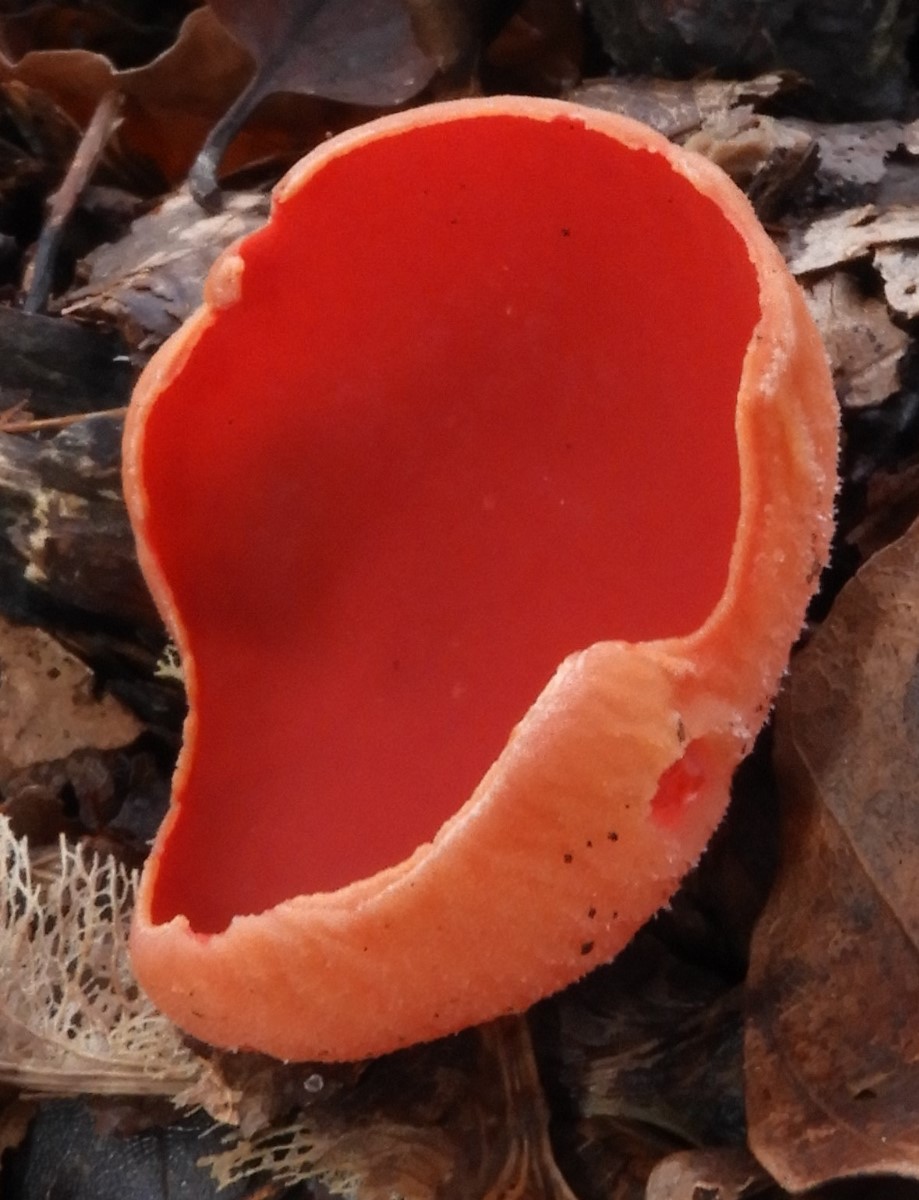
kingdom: Fungi
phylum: Ascomycota
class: Pezizomycetes
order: Pezizales
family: Sarcoscyphaceae
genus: Sarcoscypha
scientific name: Sarcoscypha austriaca
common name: krølhåret pragtbæger
